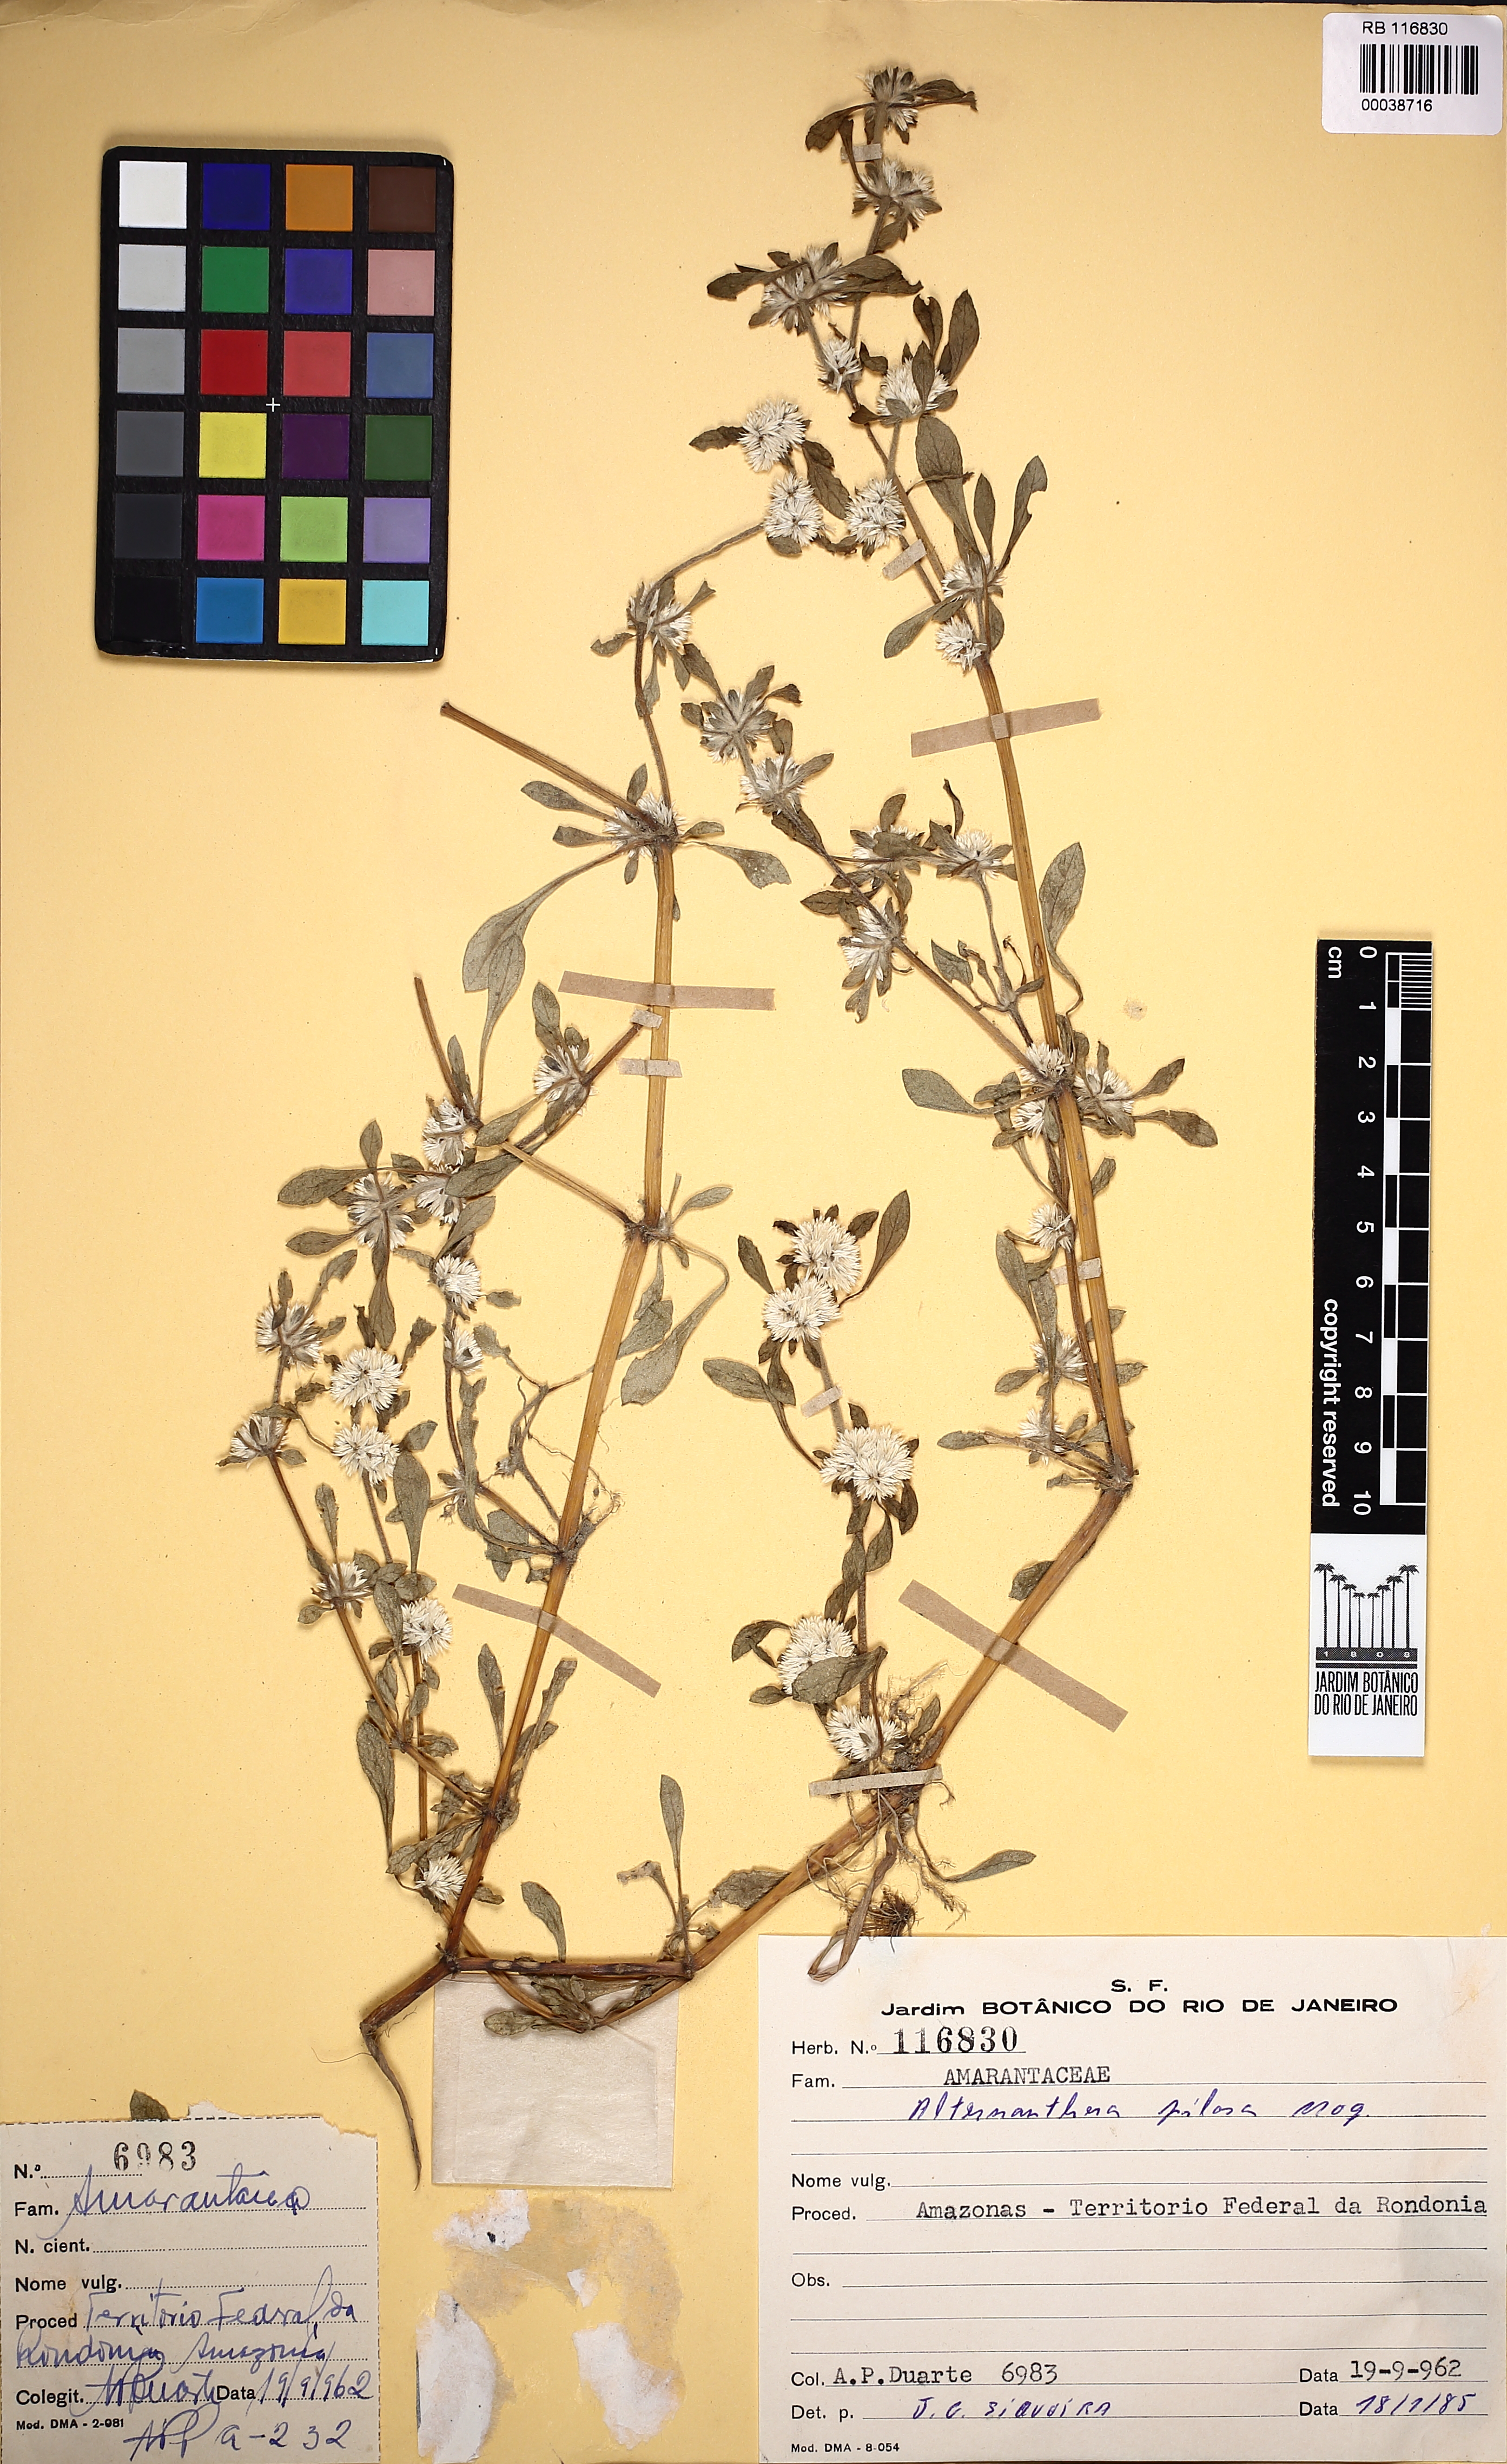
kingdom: Plantae
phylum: Tracheophyta
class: Magnoliopsida
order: Caryophyllales
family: Amaranthaceae
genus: Alternanthera
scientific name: Alternanthera paronychioides
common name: Smooth joyweed
